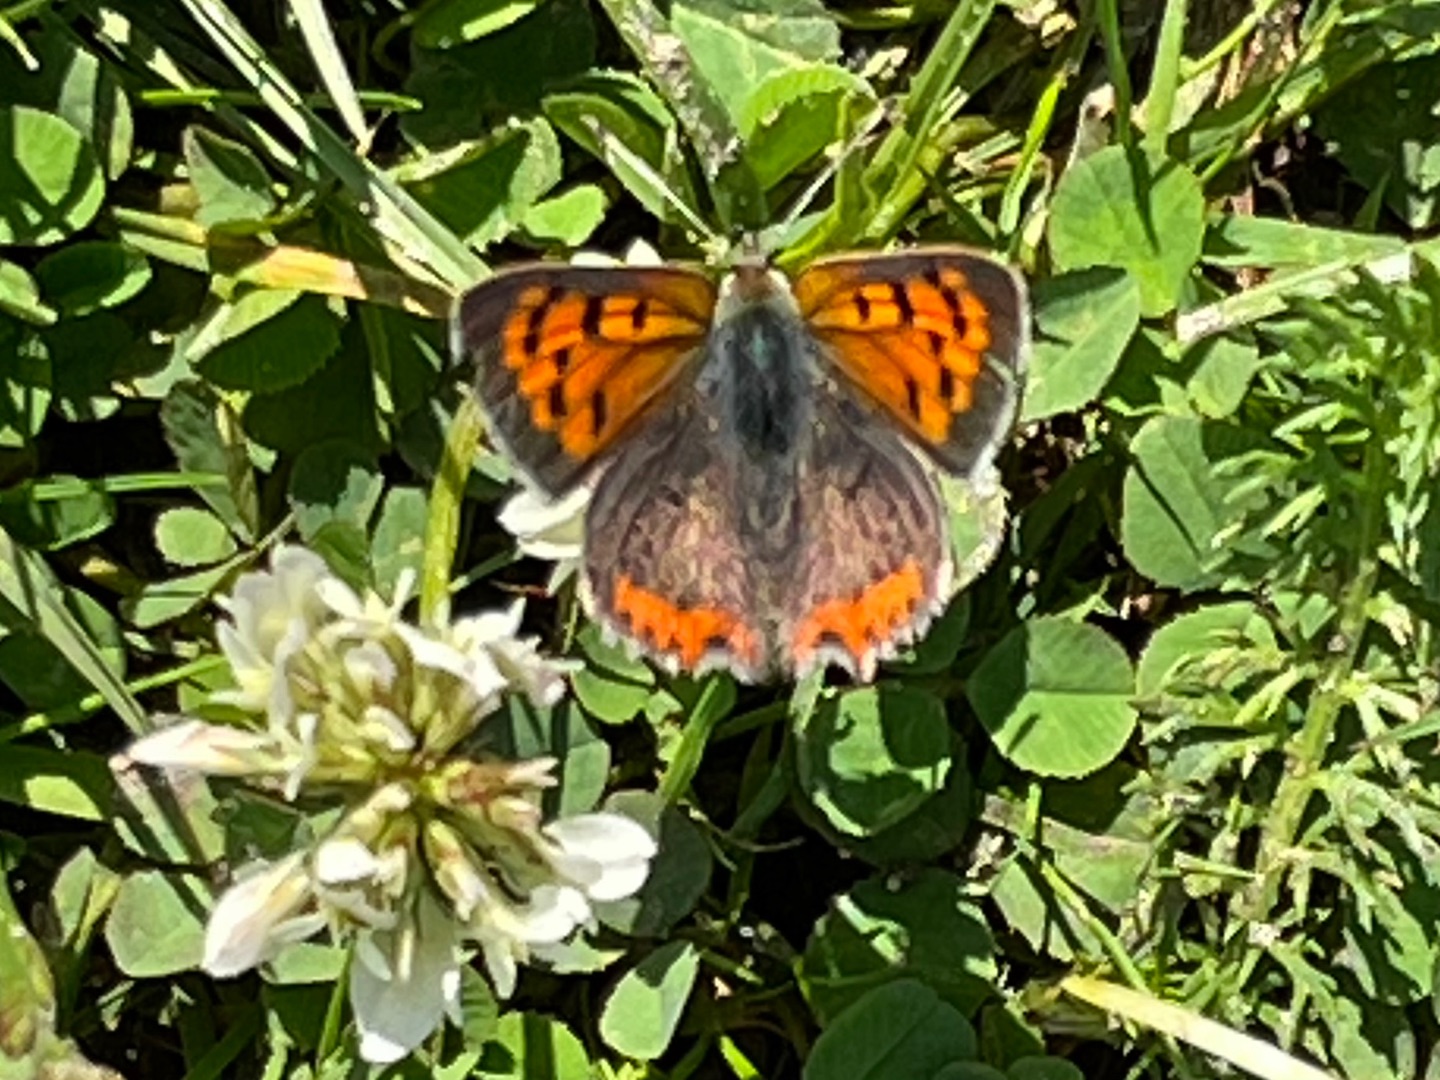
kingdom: Animalia
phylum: Arthropoda
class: Insecta
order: Lepidoptera
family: Lycaenidae
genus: Lycaena
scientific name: Lycaena phlaeas
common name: Lille ildfugl
